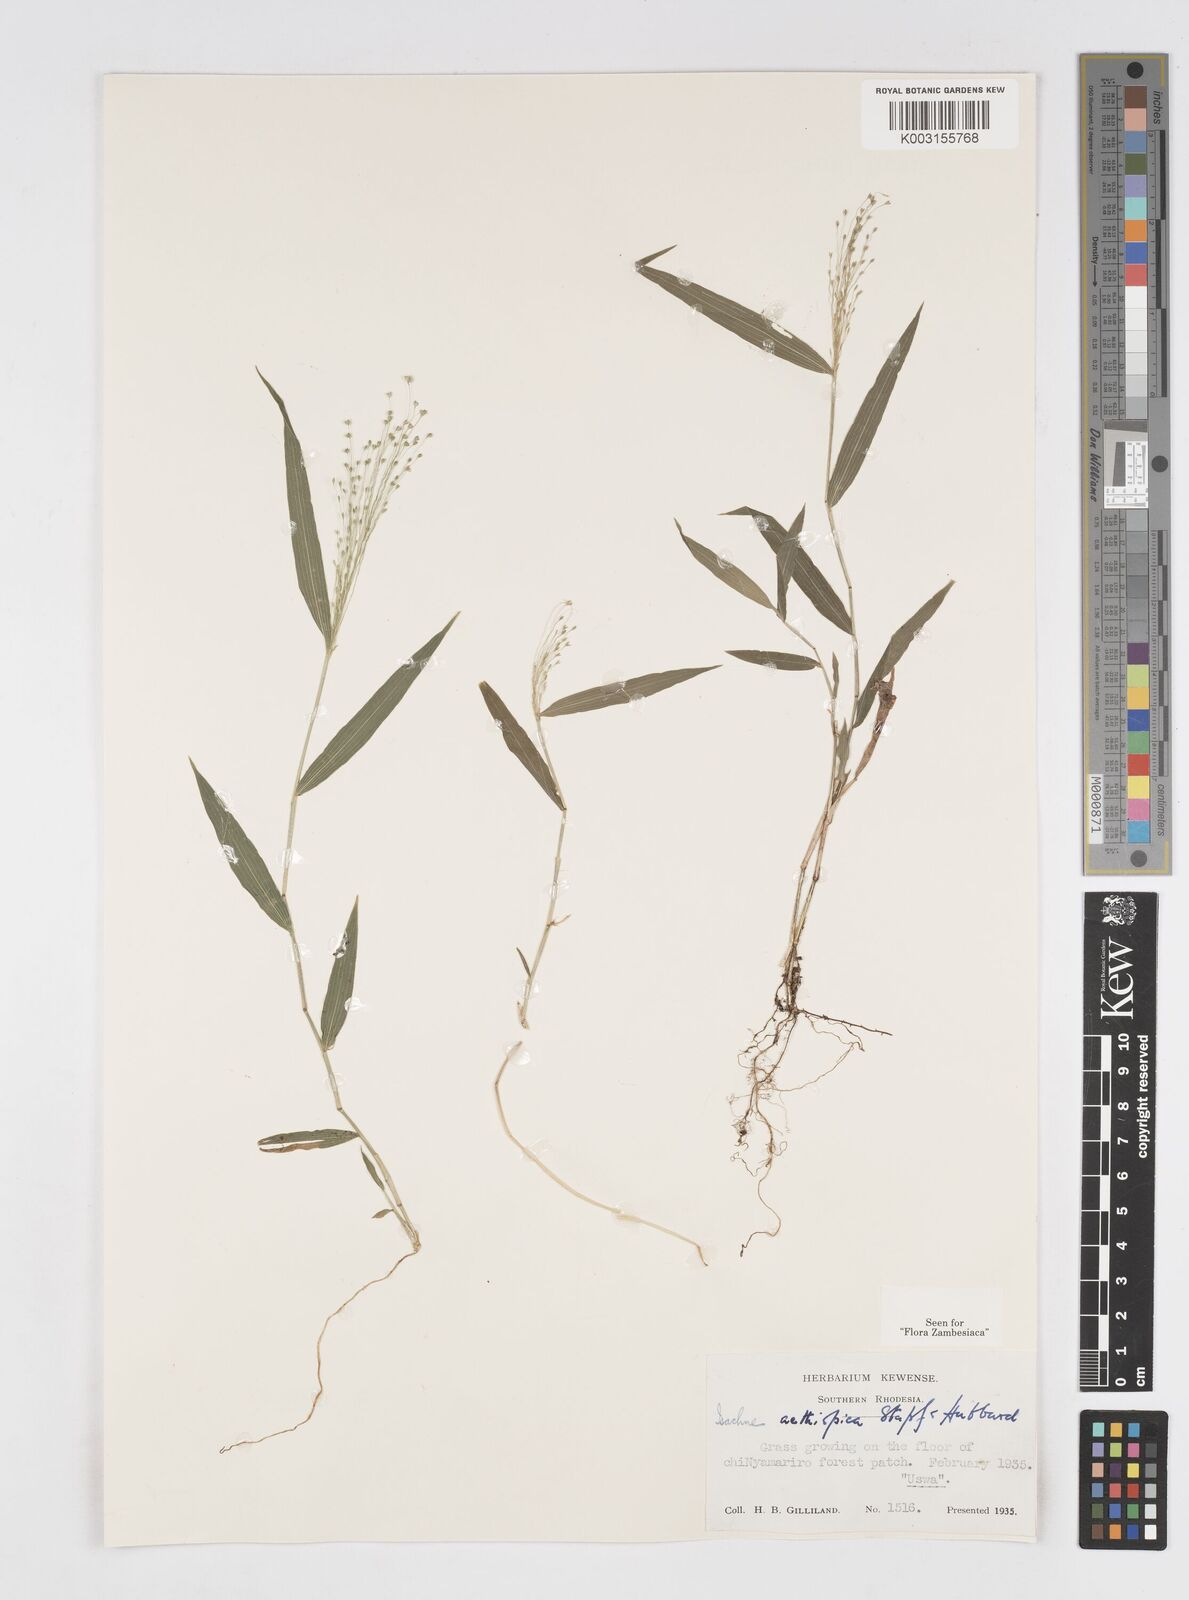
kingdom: Plantae
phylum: Tracheophyta
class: Liliopsida
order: Poales
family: Poaceae
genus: Isachne
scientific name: Isachne mauritiana
